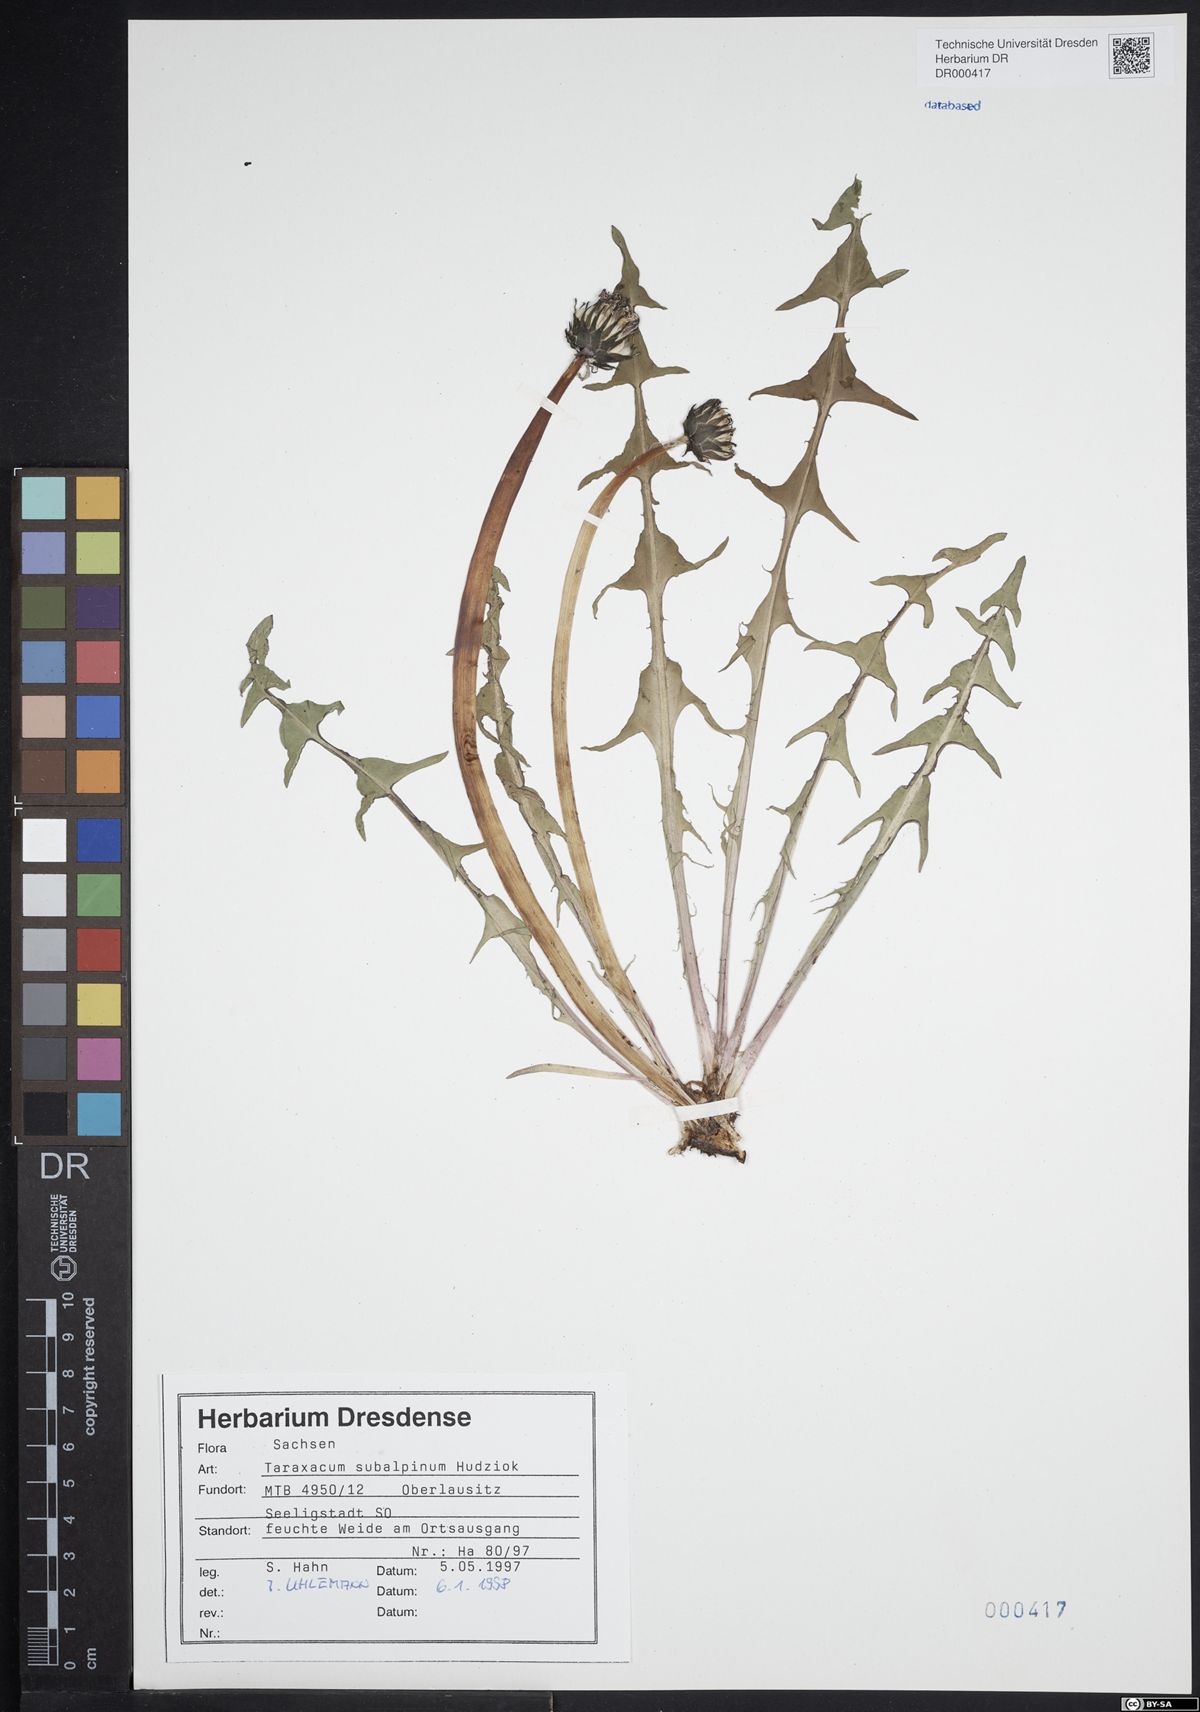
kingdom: Plantae
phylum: Tracheophyta
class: Magnoliopsida
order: Asterales
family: Asteraceae
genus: Taraxacum
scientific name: Taraxacum subalpinum
